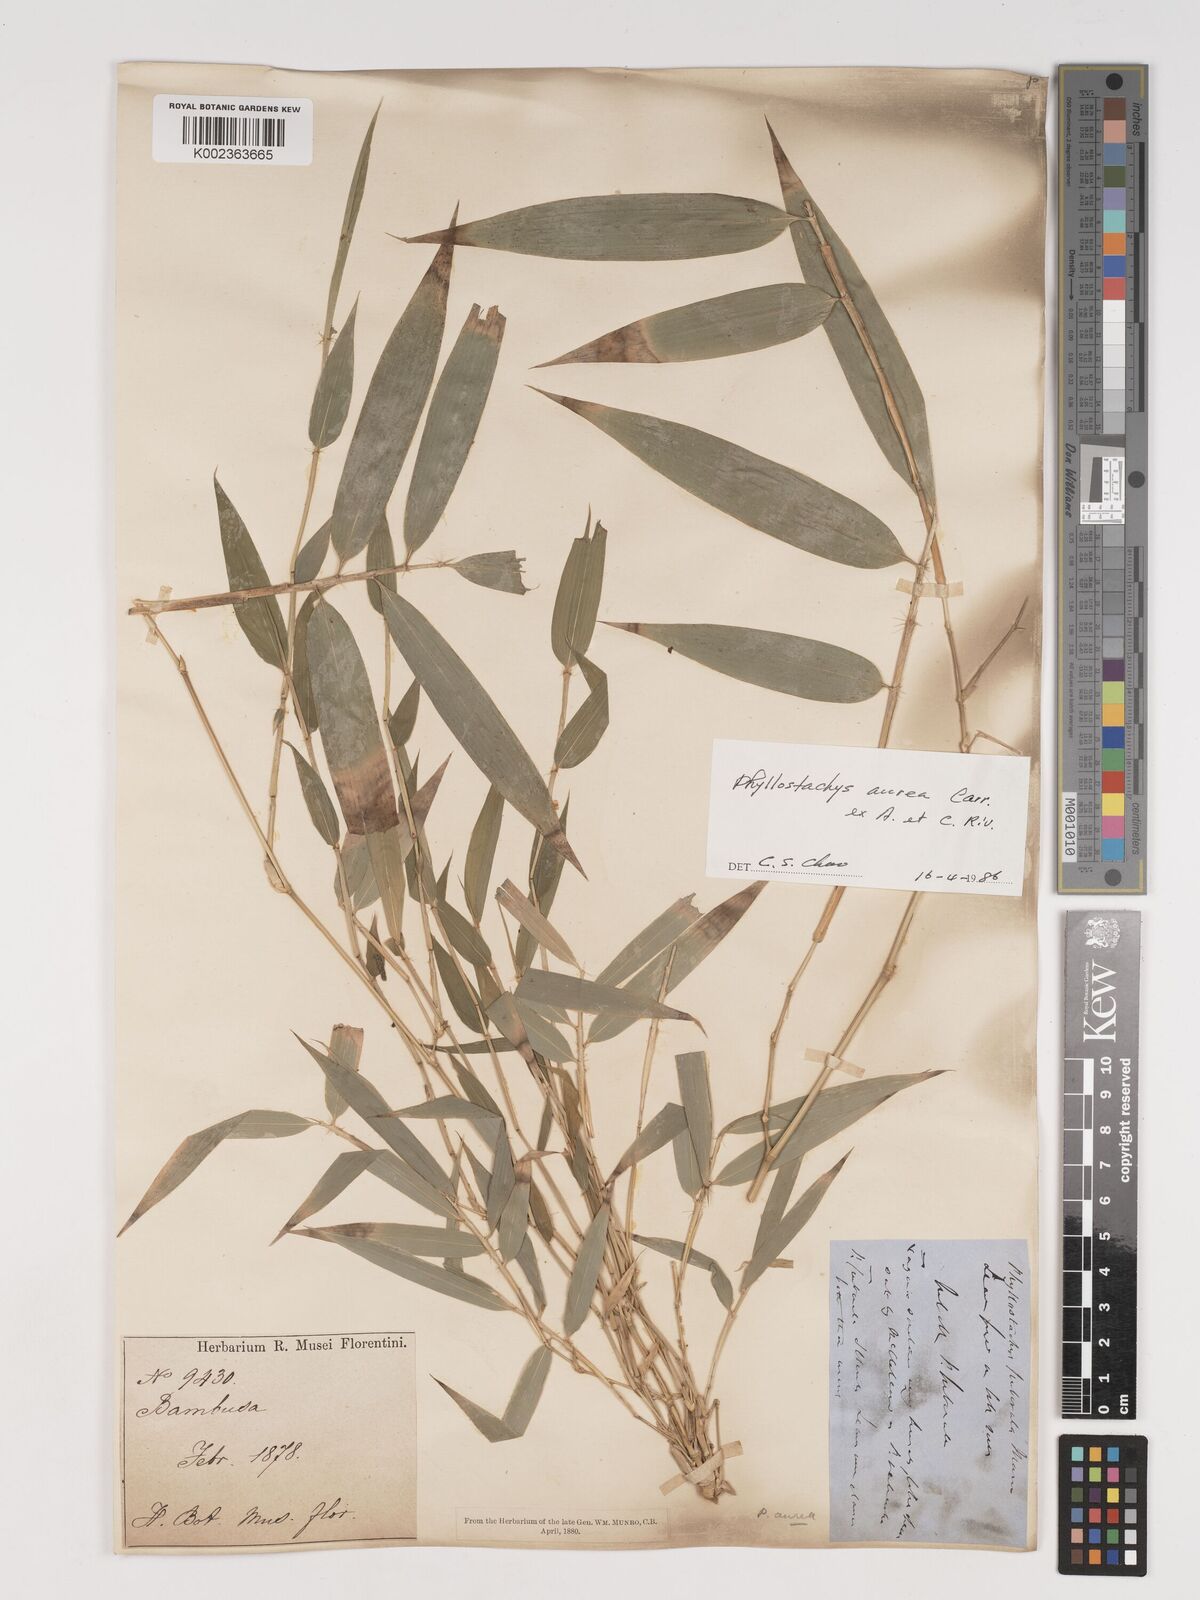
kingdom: Plantae
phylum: Tracheophyta
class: Liliopsida
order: Poales
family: Poaceae
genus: Phyllostachys
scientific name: Phyllostachys aurea
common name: Golden bamboo
